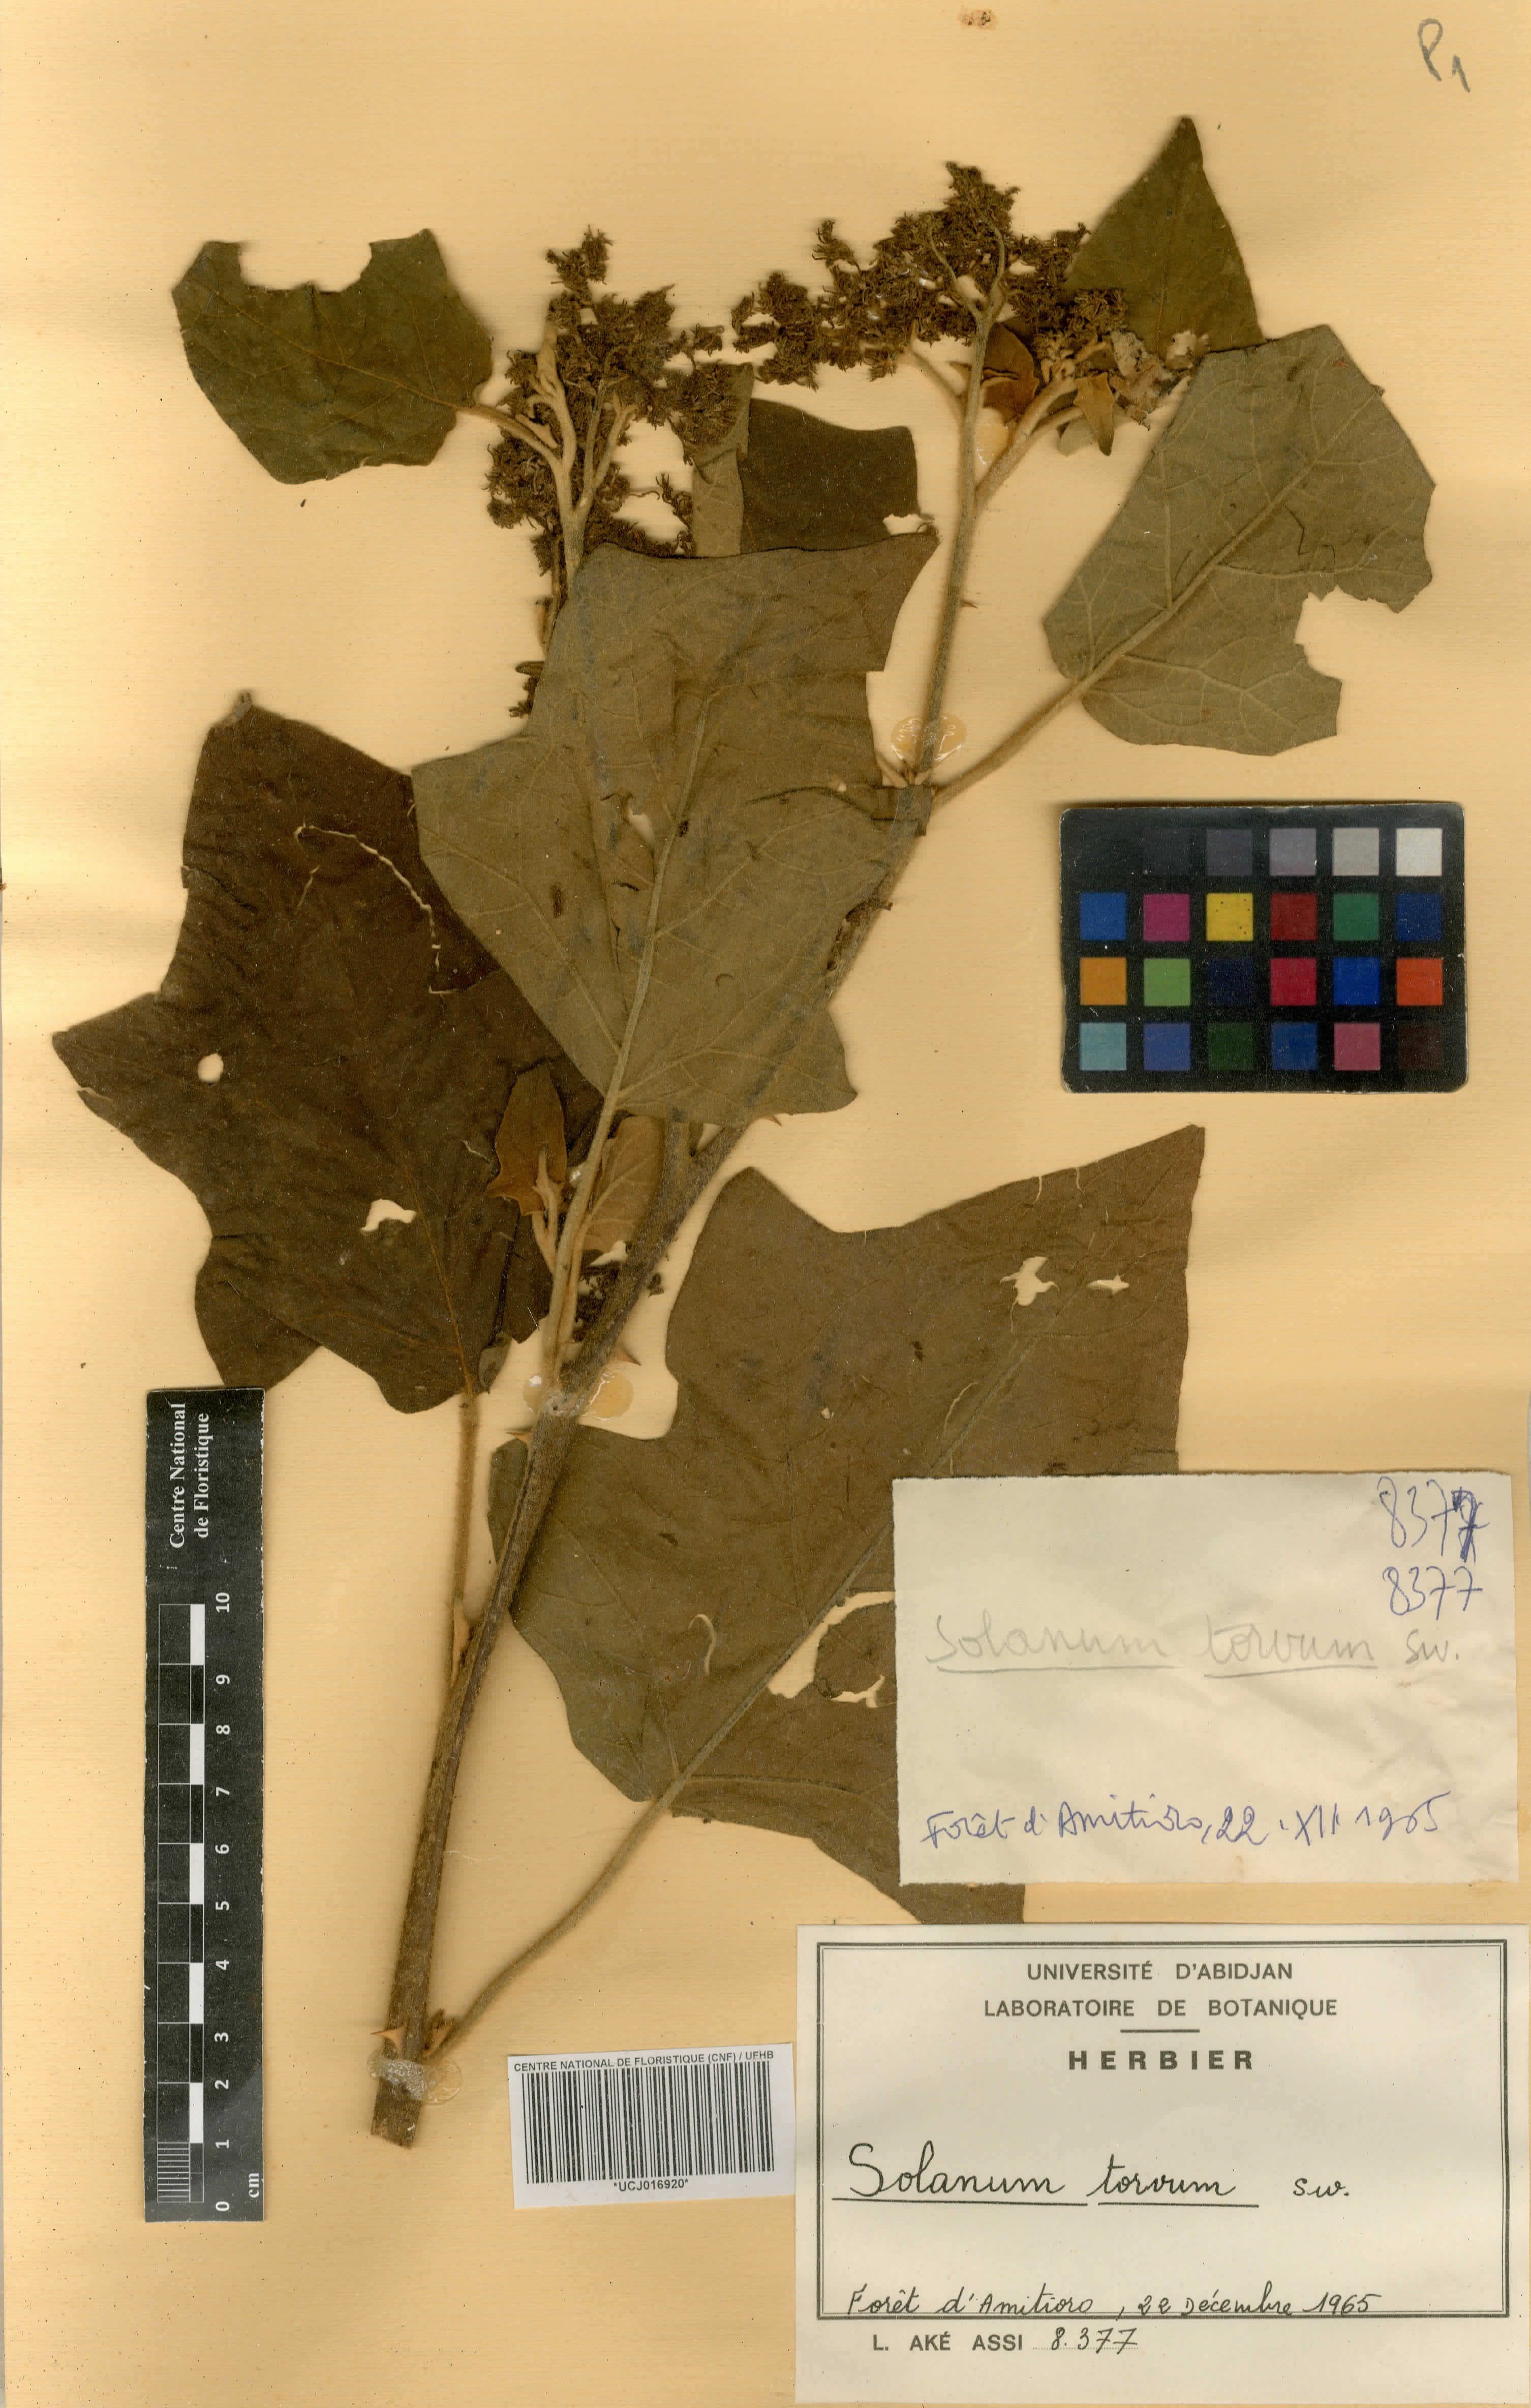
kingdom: Plantae
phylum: Tracheophyta
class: Magnoliopsida
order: Solanales
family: Solanaceae
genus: Solanum
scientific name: Solanum torvum
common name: Turkey berry
